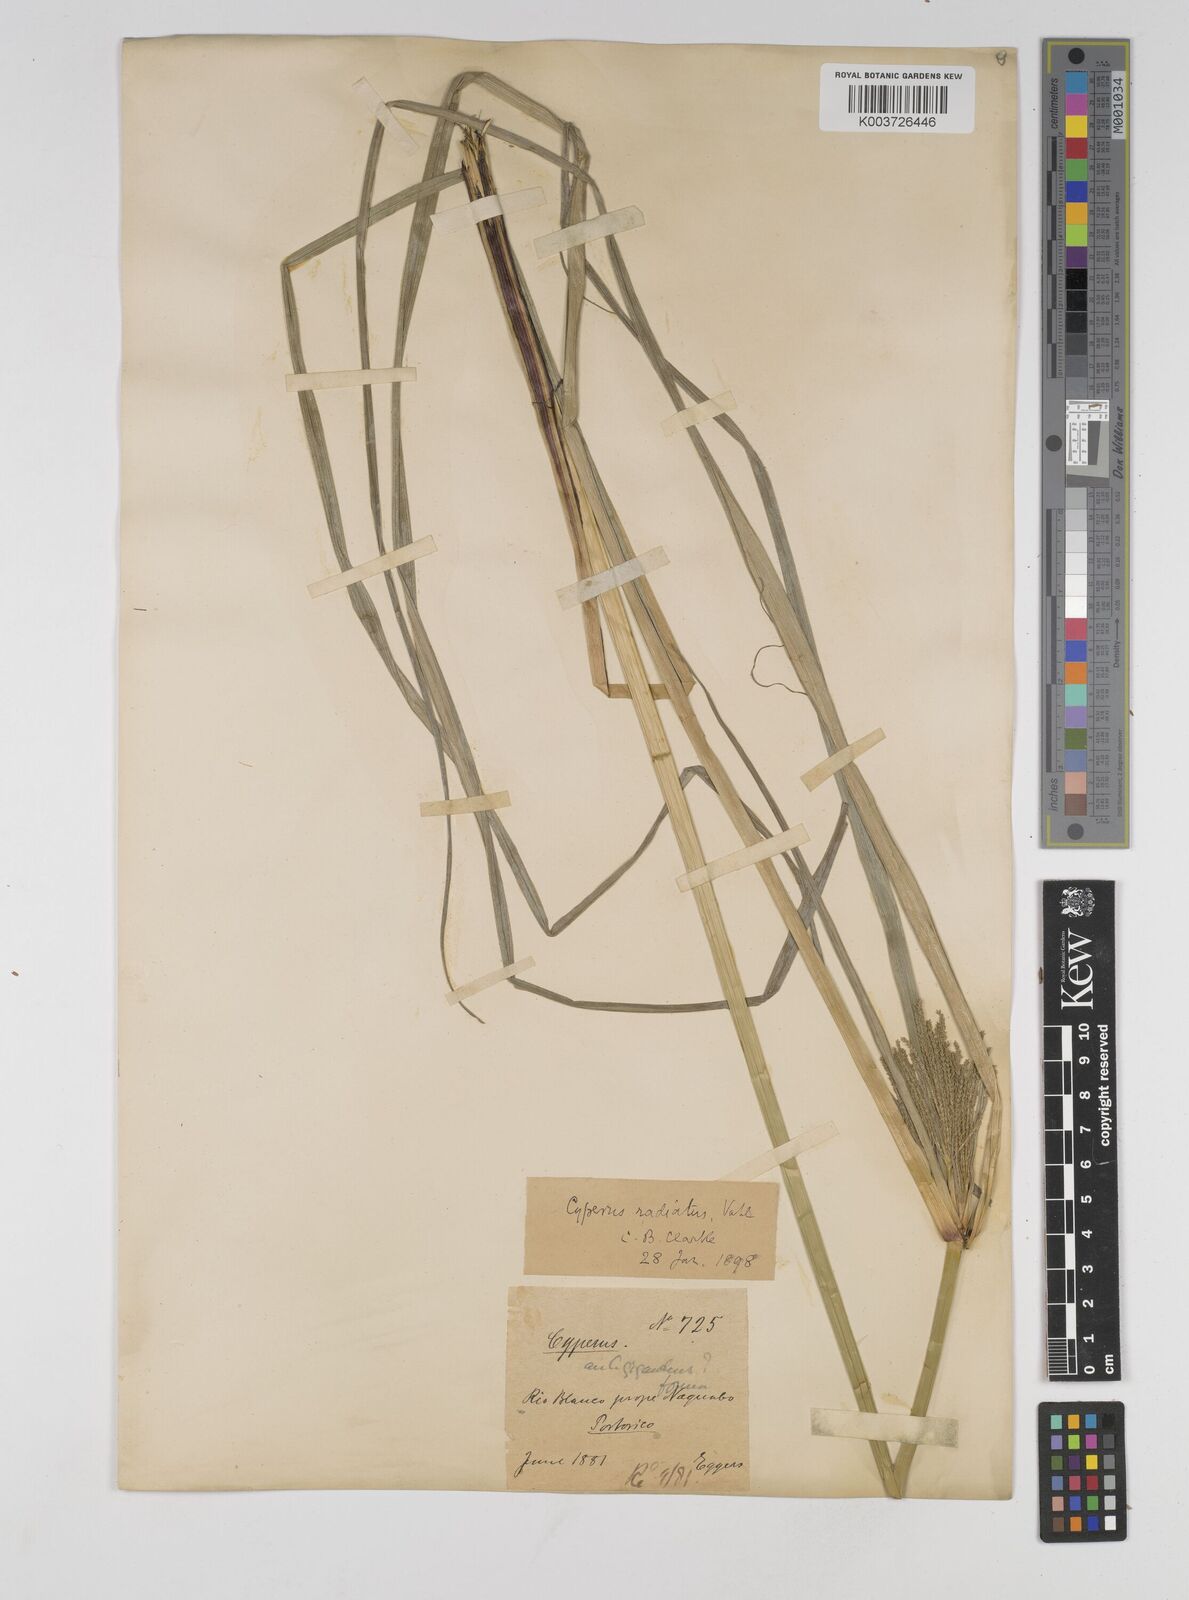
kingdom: Plantae
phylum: Tracheophyta
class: Liliopsida
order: Poales
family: Cyperaceae
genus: Cyperus
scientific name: Cyperus imbricatus
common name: Shingle flatsedge
